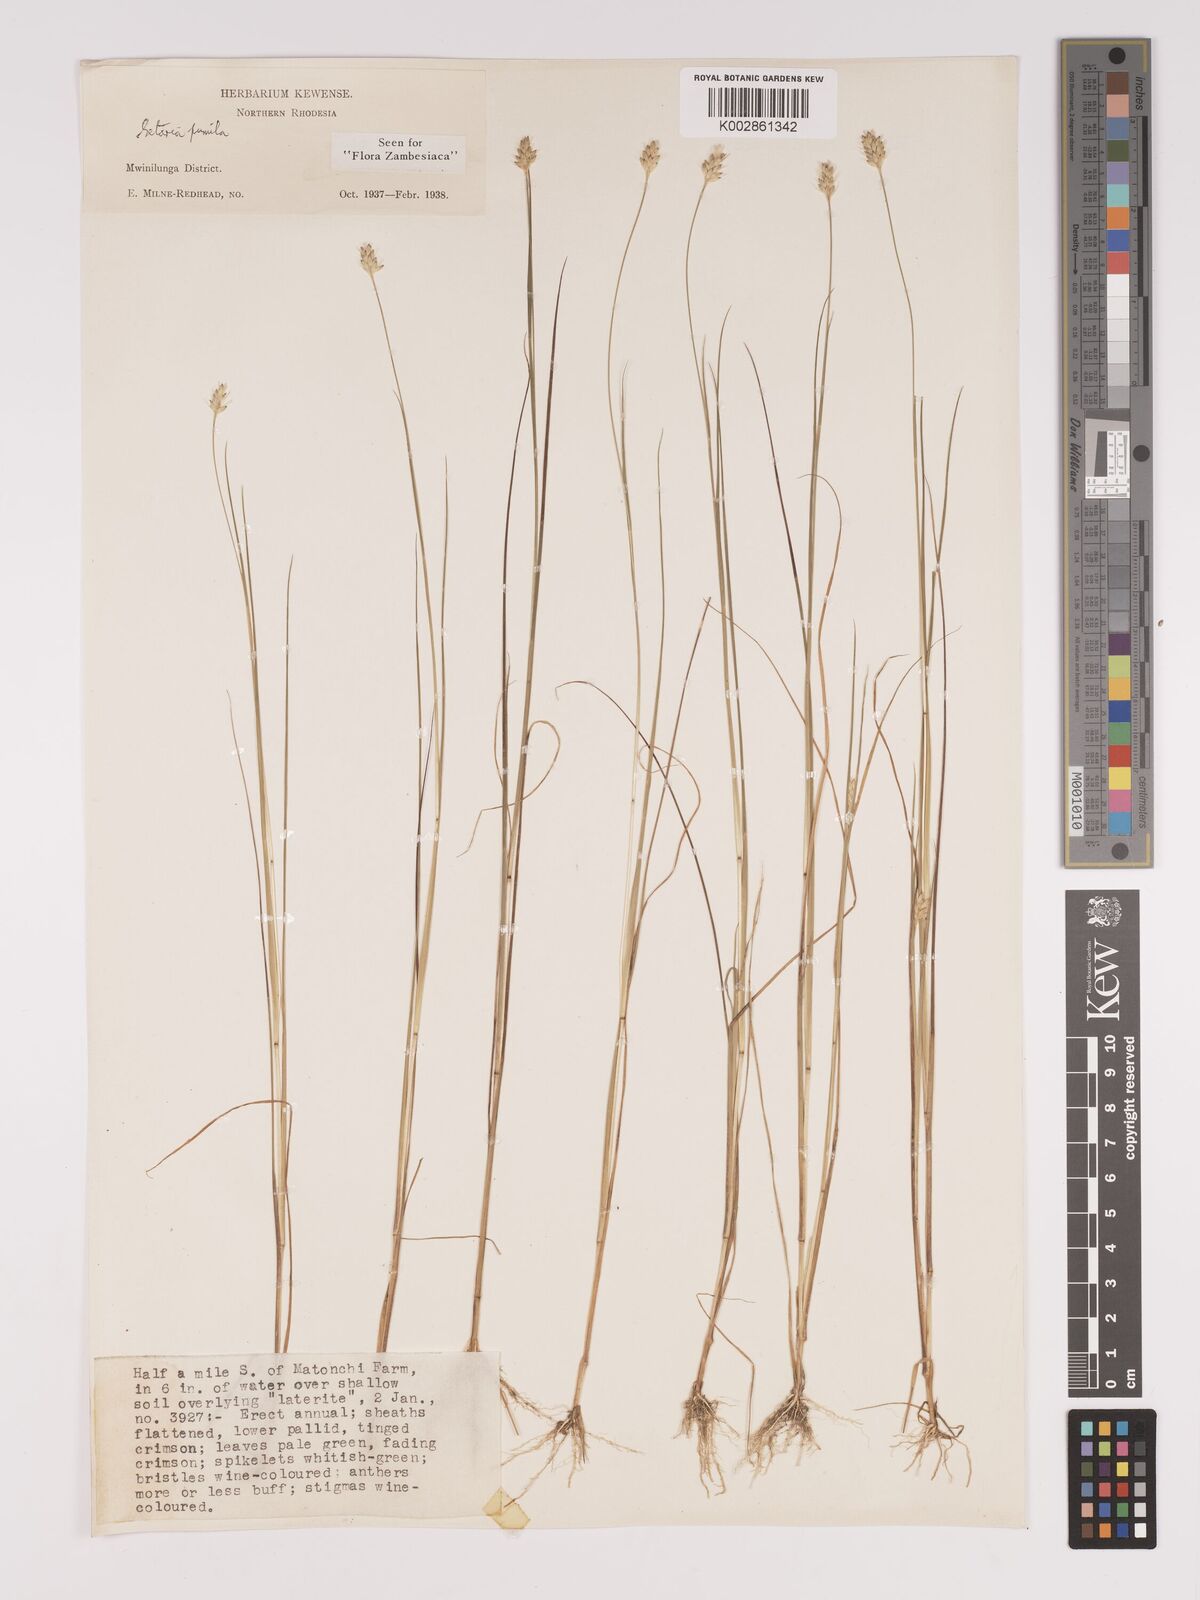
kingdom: Plantae
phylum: Tracheophyta
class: Liliopsida
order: Poales
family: Poaceae
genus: Setaria
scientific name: Setaria pumila
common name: Yellow bristle-grass
